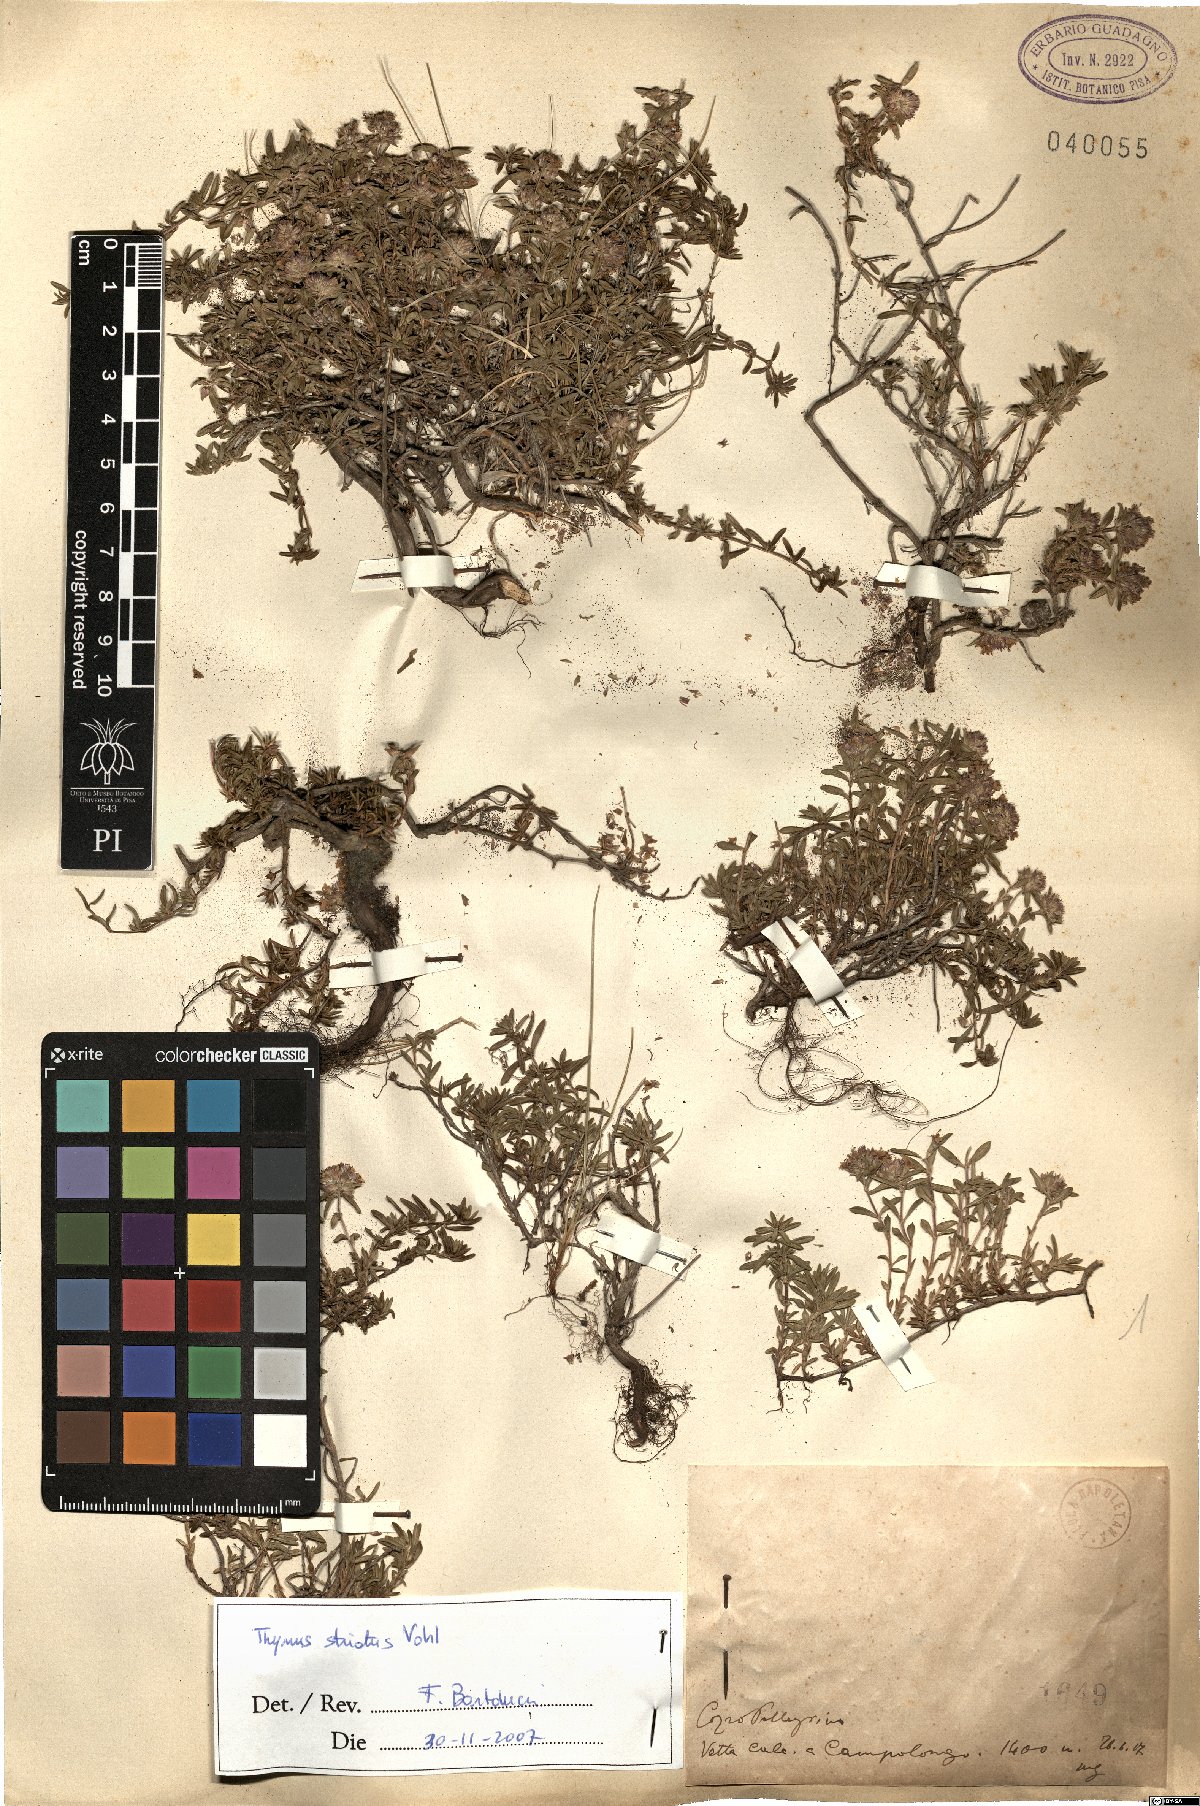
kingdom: Plantae
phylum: Tracheophyta
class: Magnoliopsida
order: Lamiales
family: Lamiaceae
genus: Thymus
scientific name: Thymus striatus
